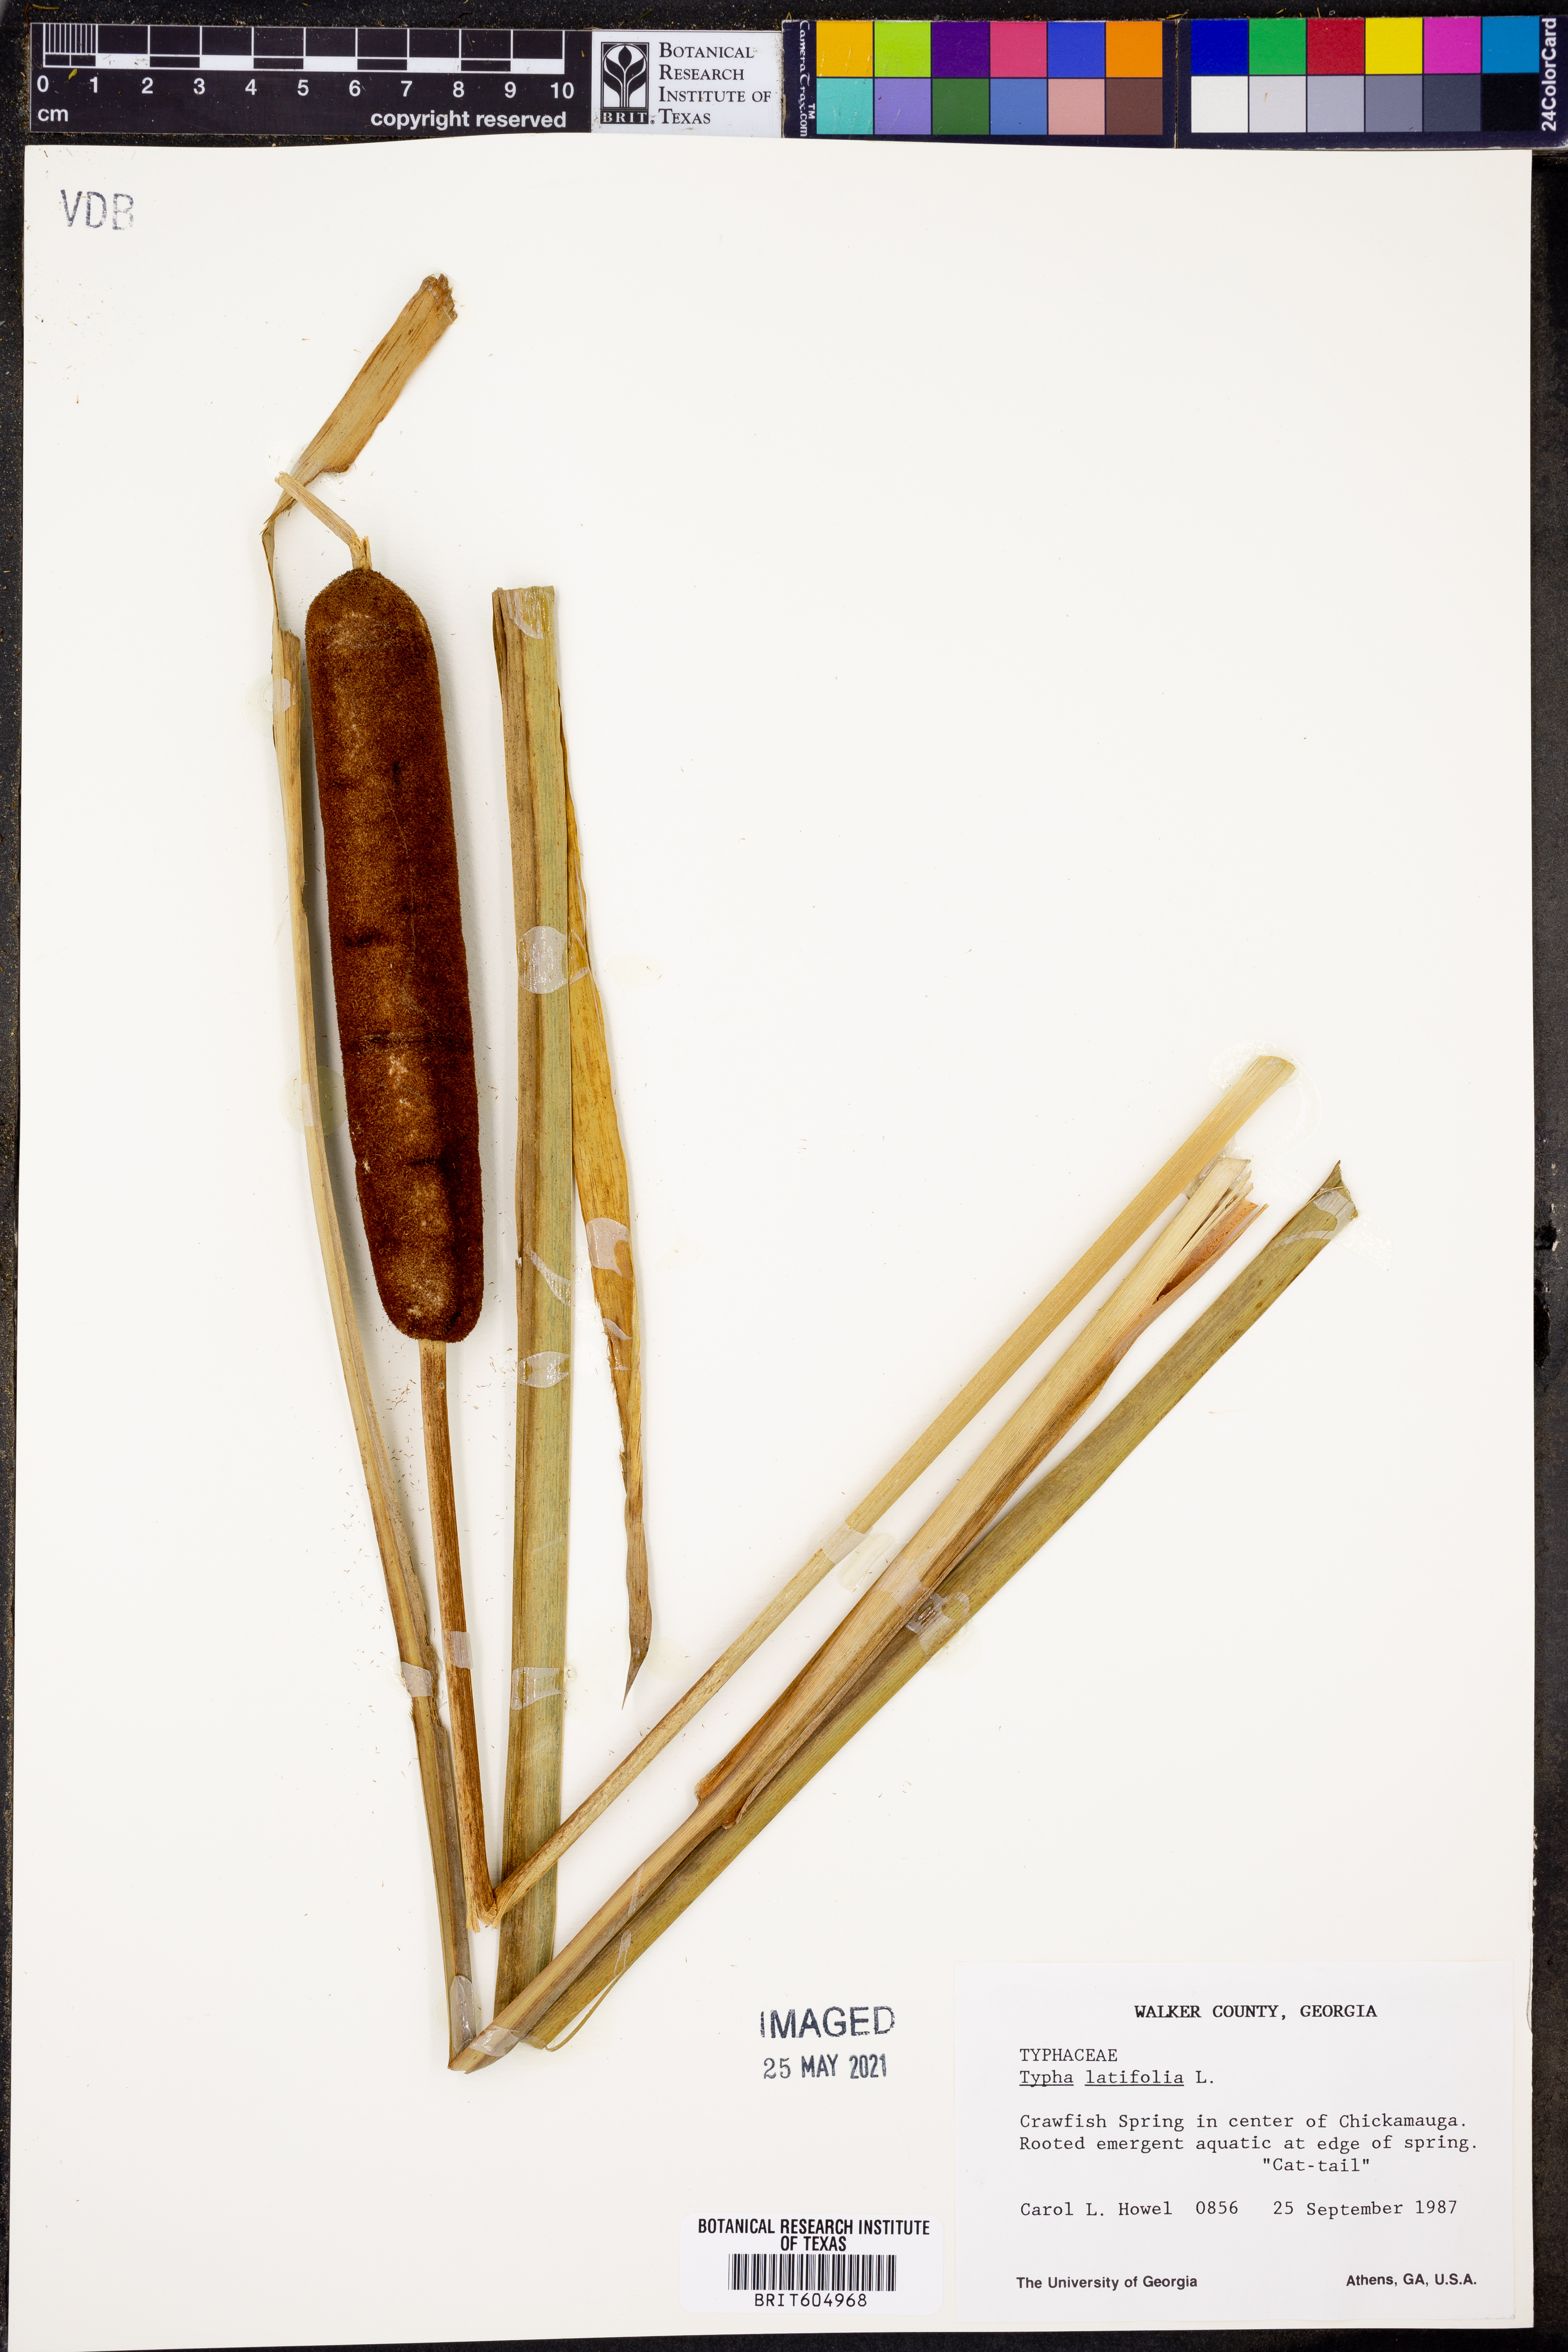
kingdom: Plantae
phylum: Tracheophyta
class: Liliopsida
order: Poales
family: Typhaceae
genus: Typha
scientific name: Typha latifolia
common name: Broadleaf cattail
